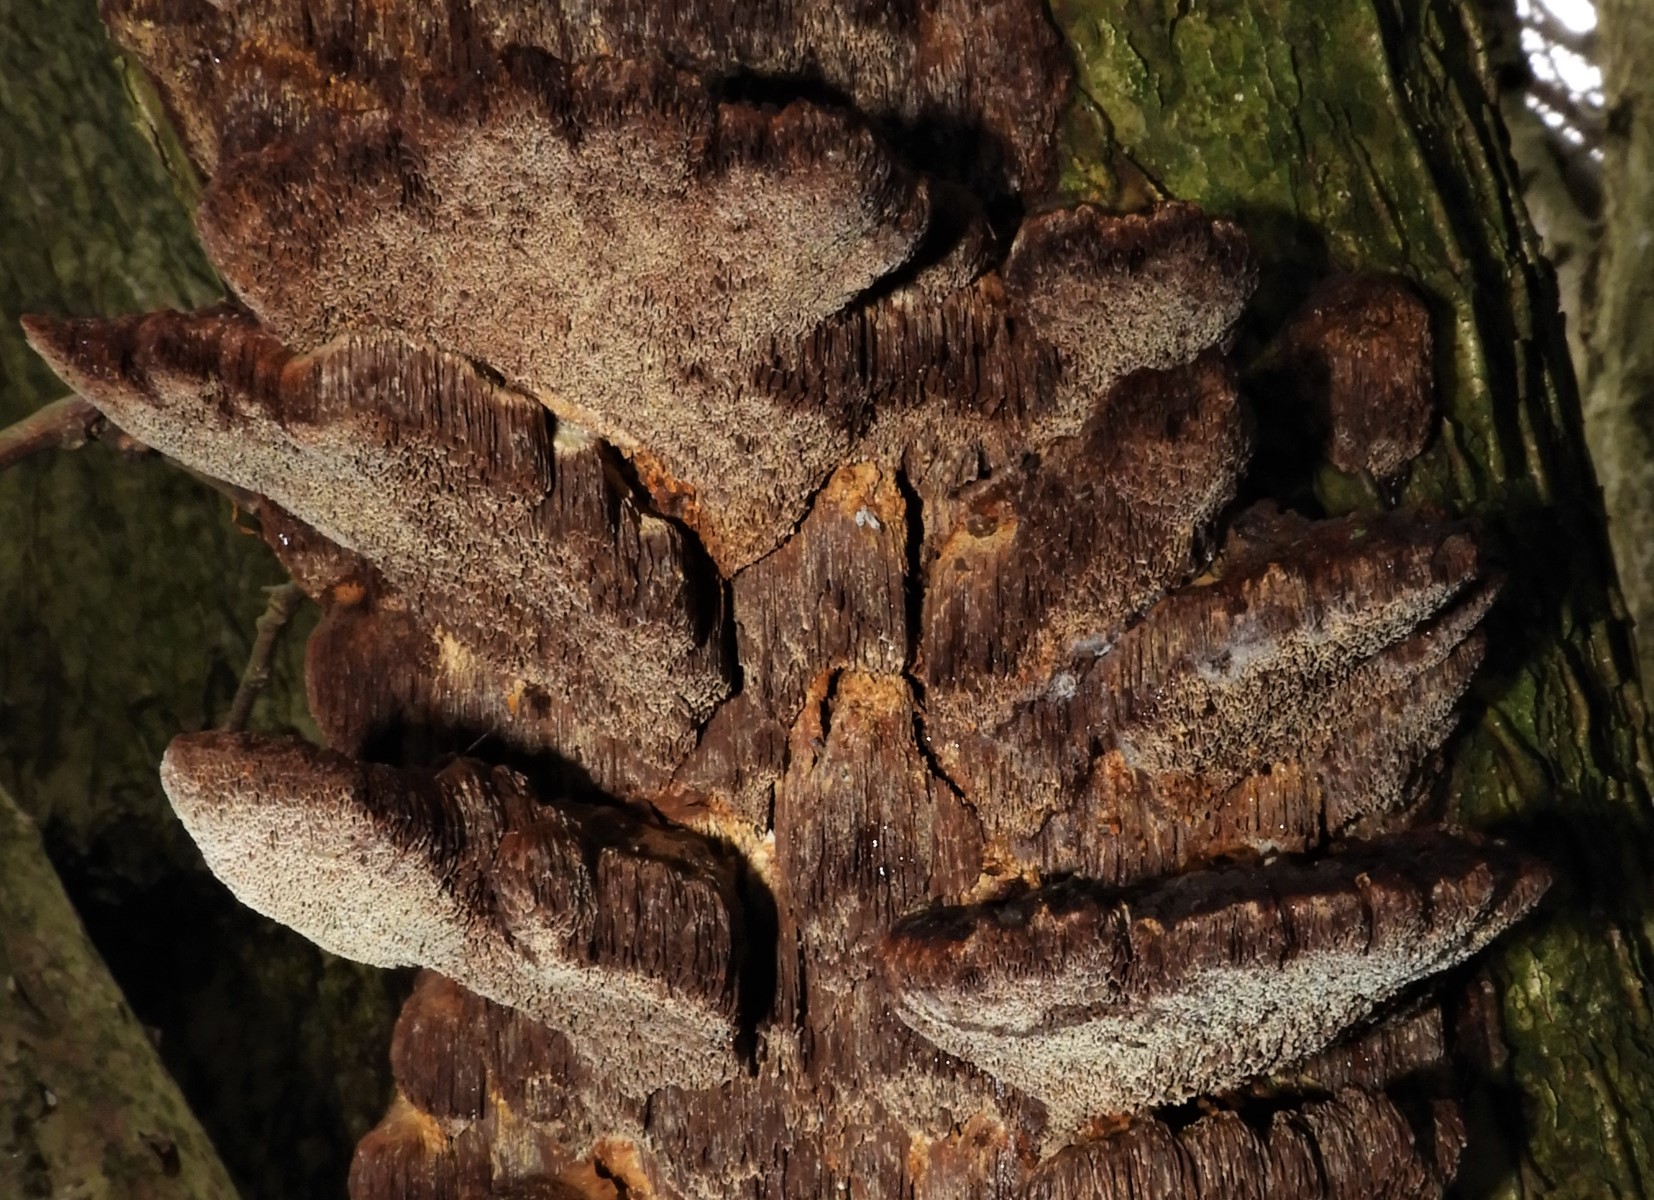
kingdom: Fungi
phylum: Basidiomycota
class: Agaricomycetes
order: Hymenochaetales
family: Hymenochaetaceae
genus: Xanthoporia
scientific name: Xanthoporia radiata
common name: elle-spejlporesvamp
